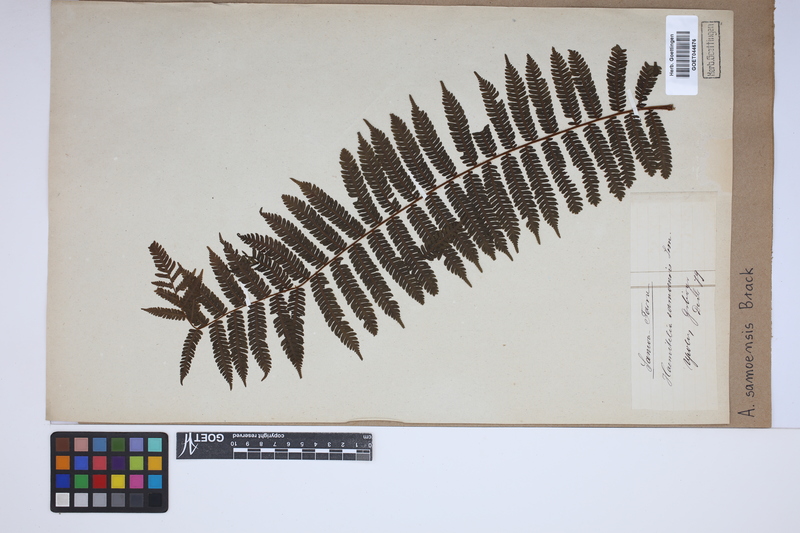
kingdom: Plantae
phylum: Tracheophyta
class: Polypodiopsida
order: Cyatheales
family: Cyatheaceae
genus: Sphaeropteris
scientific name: Sphaeropteris samoensis
